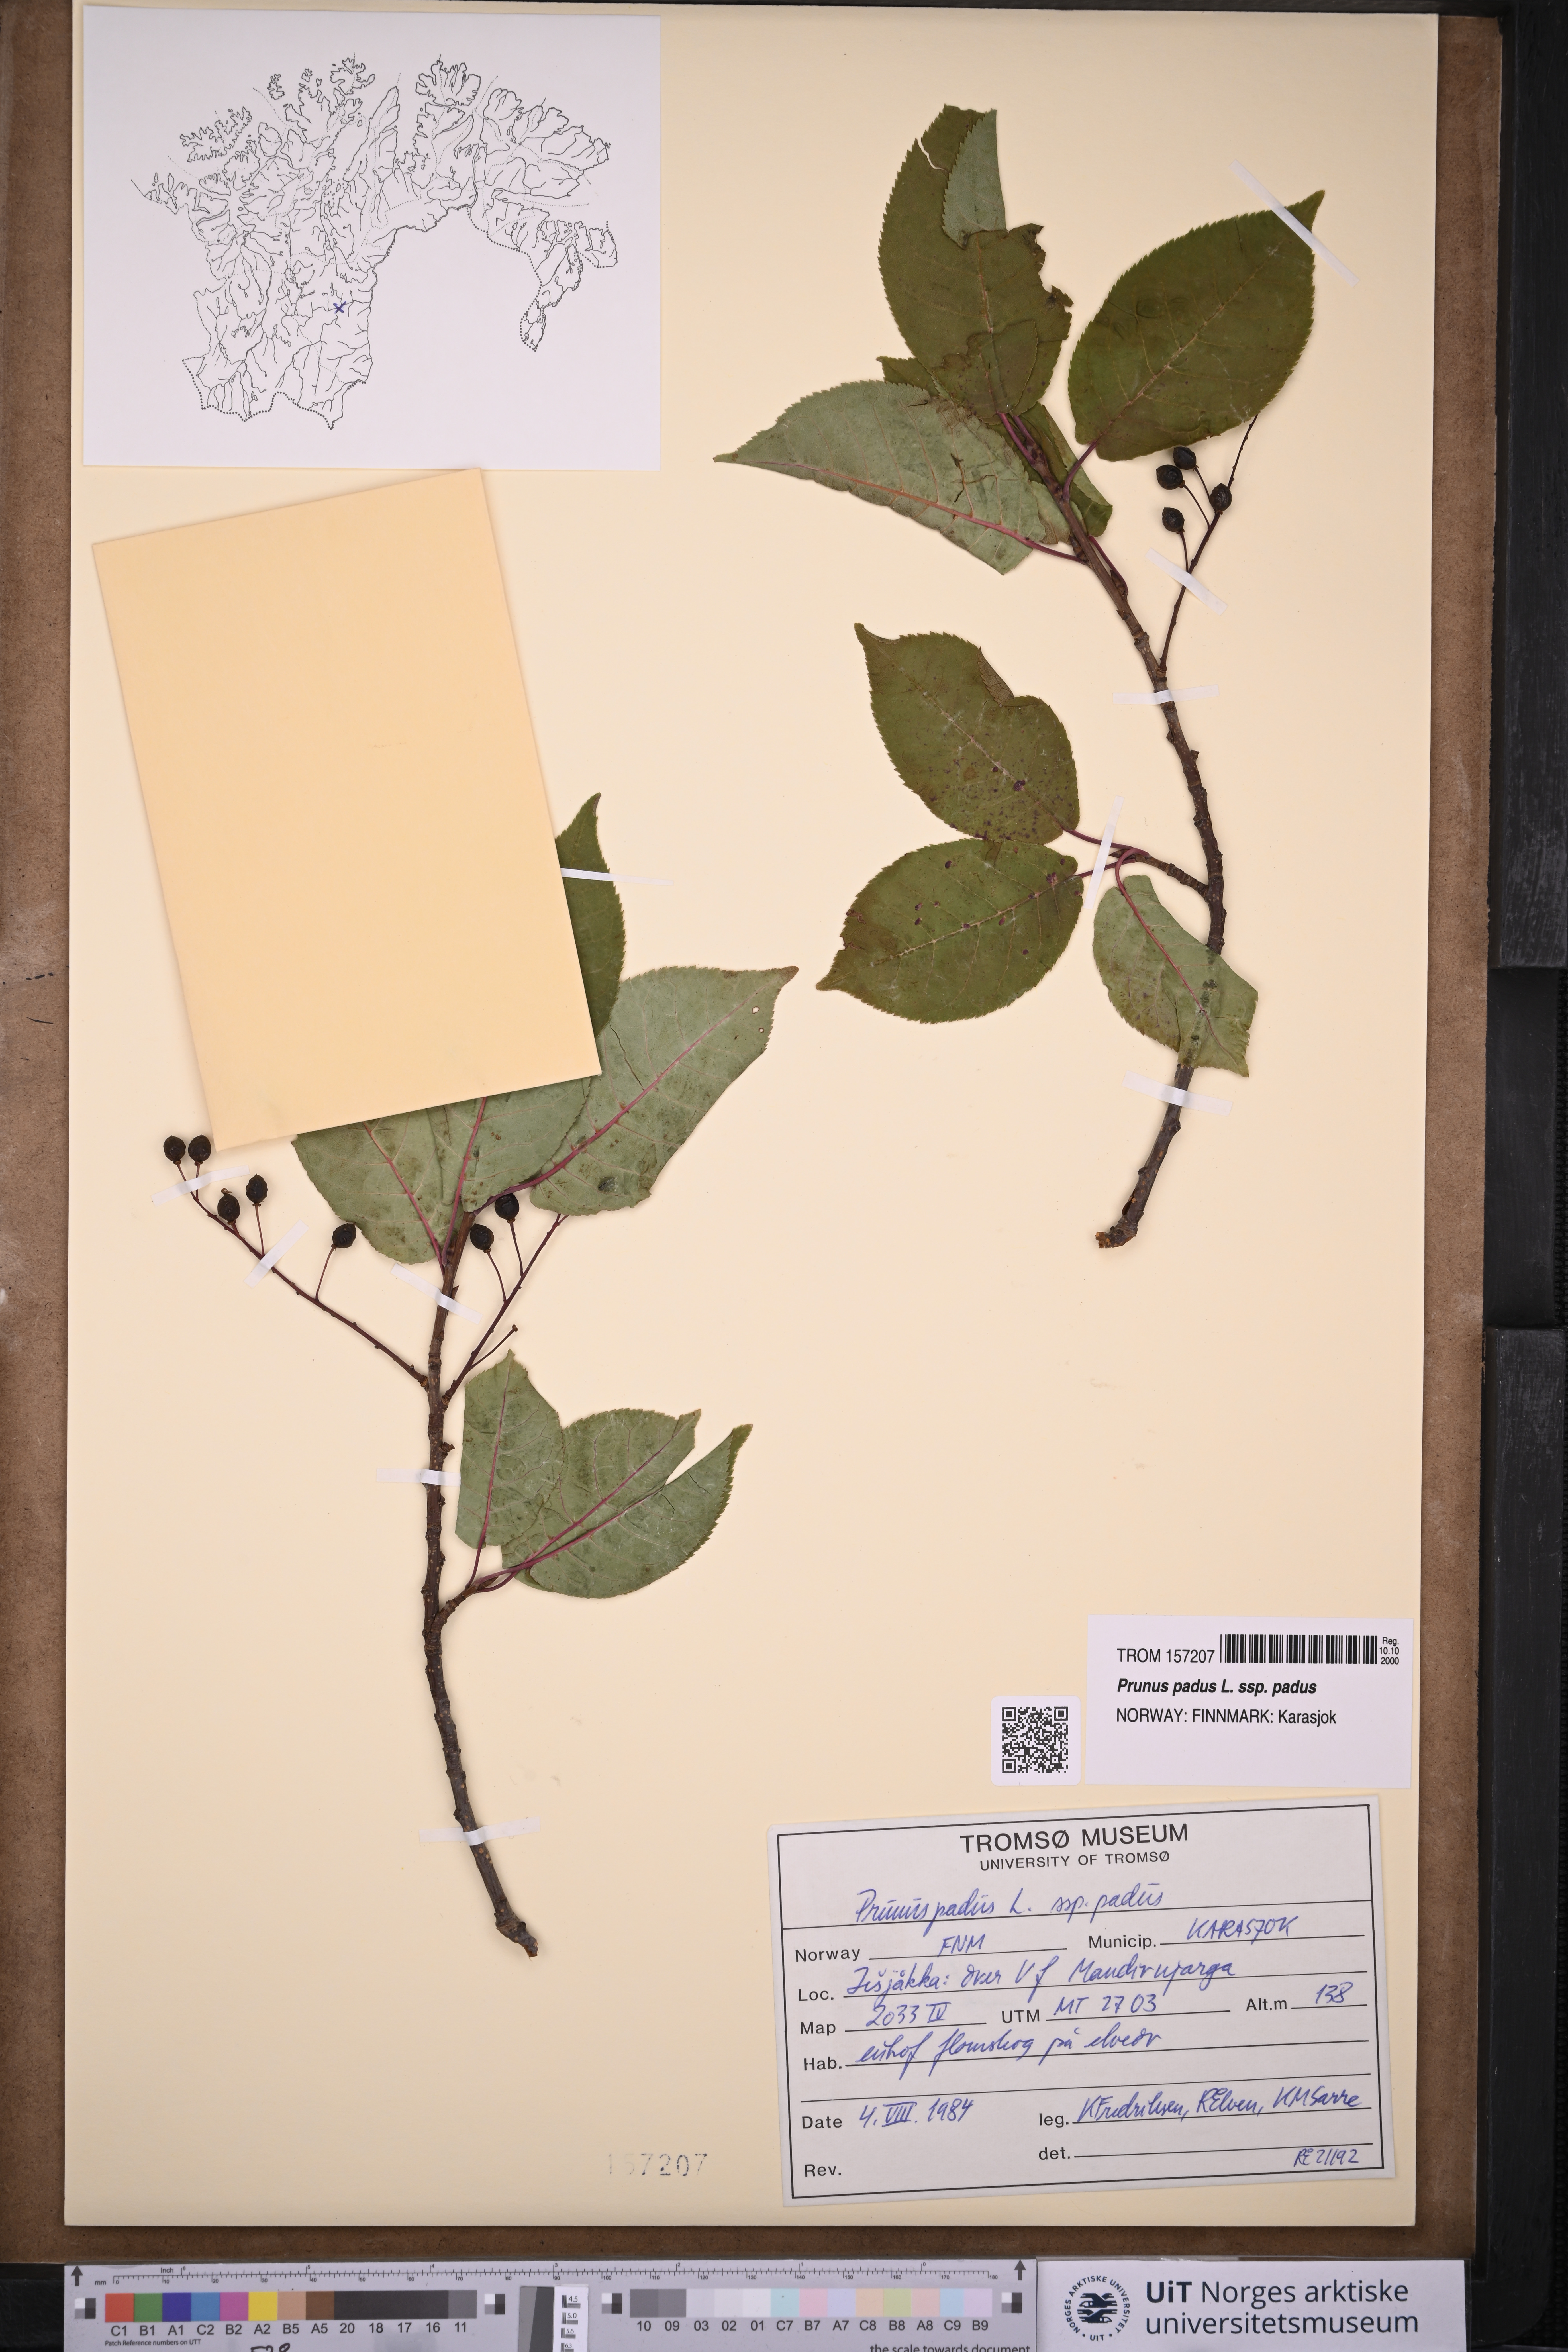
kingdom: Plantae
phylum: Tracheophyta
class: Magnoliopsida
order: Rosales
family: Rosaceae
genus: Prunus
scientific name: Prunus padus
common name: Bird cherry
